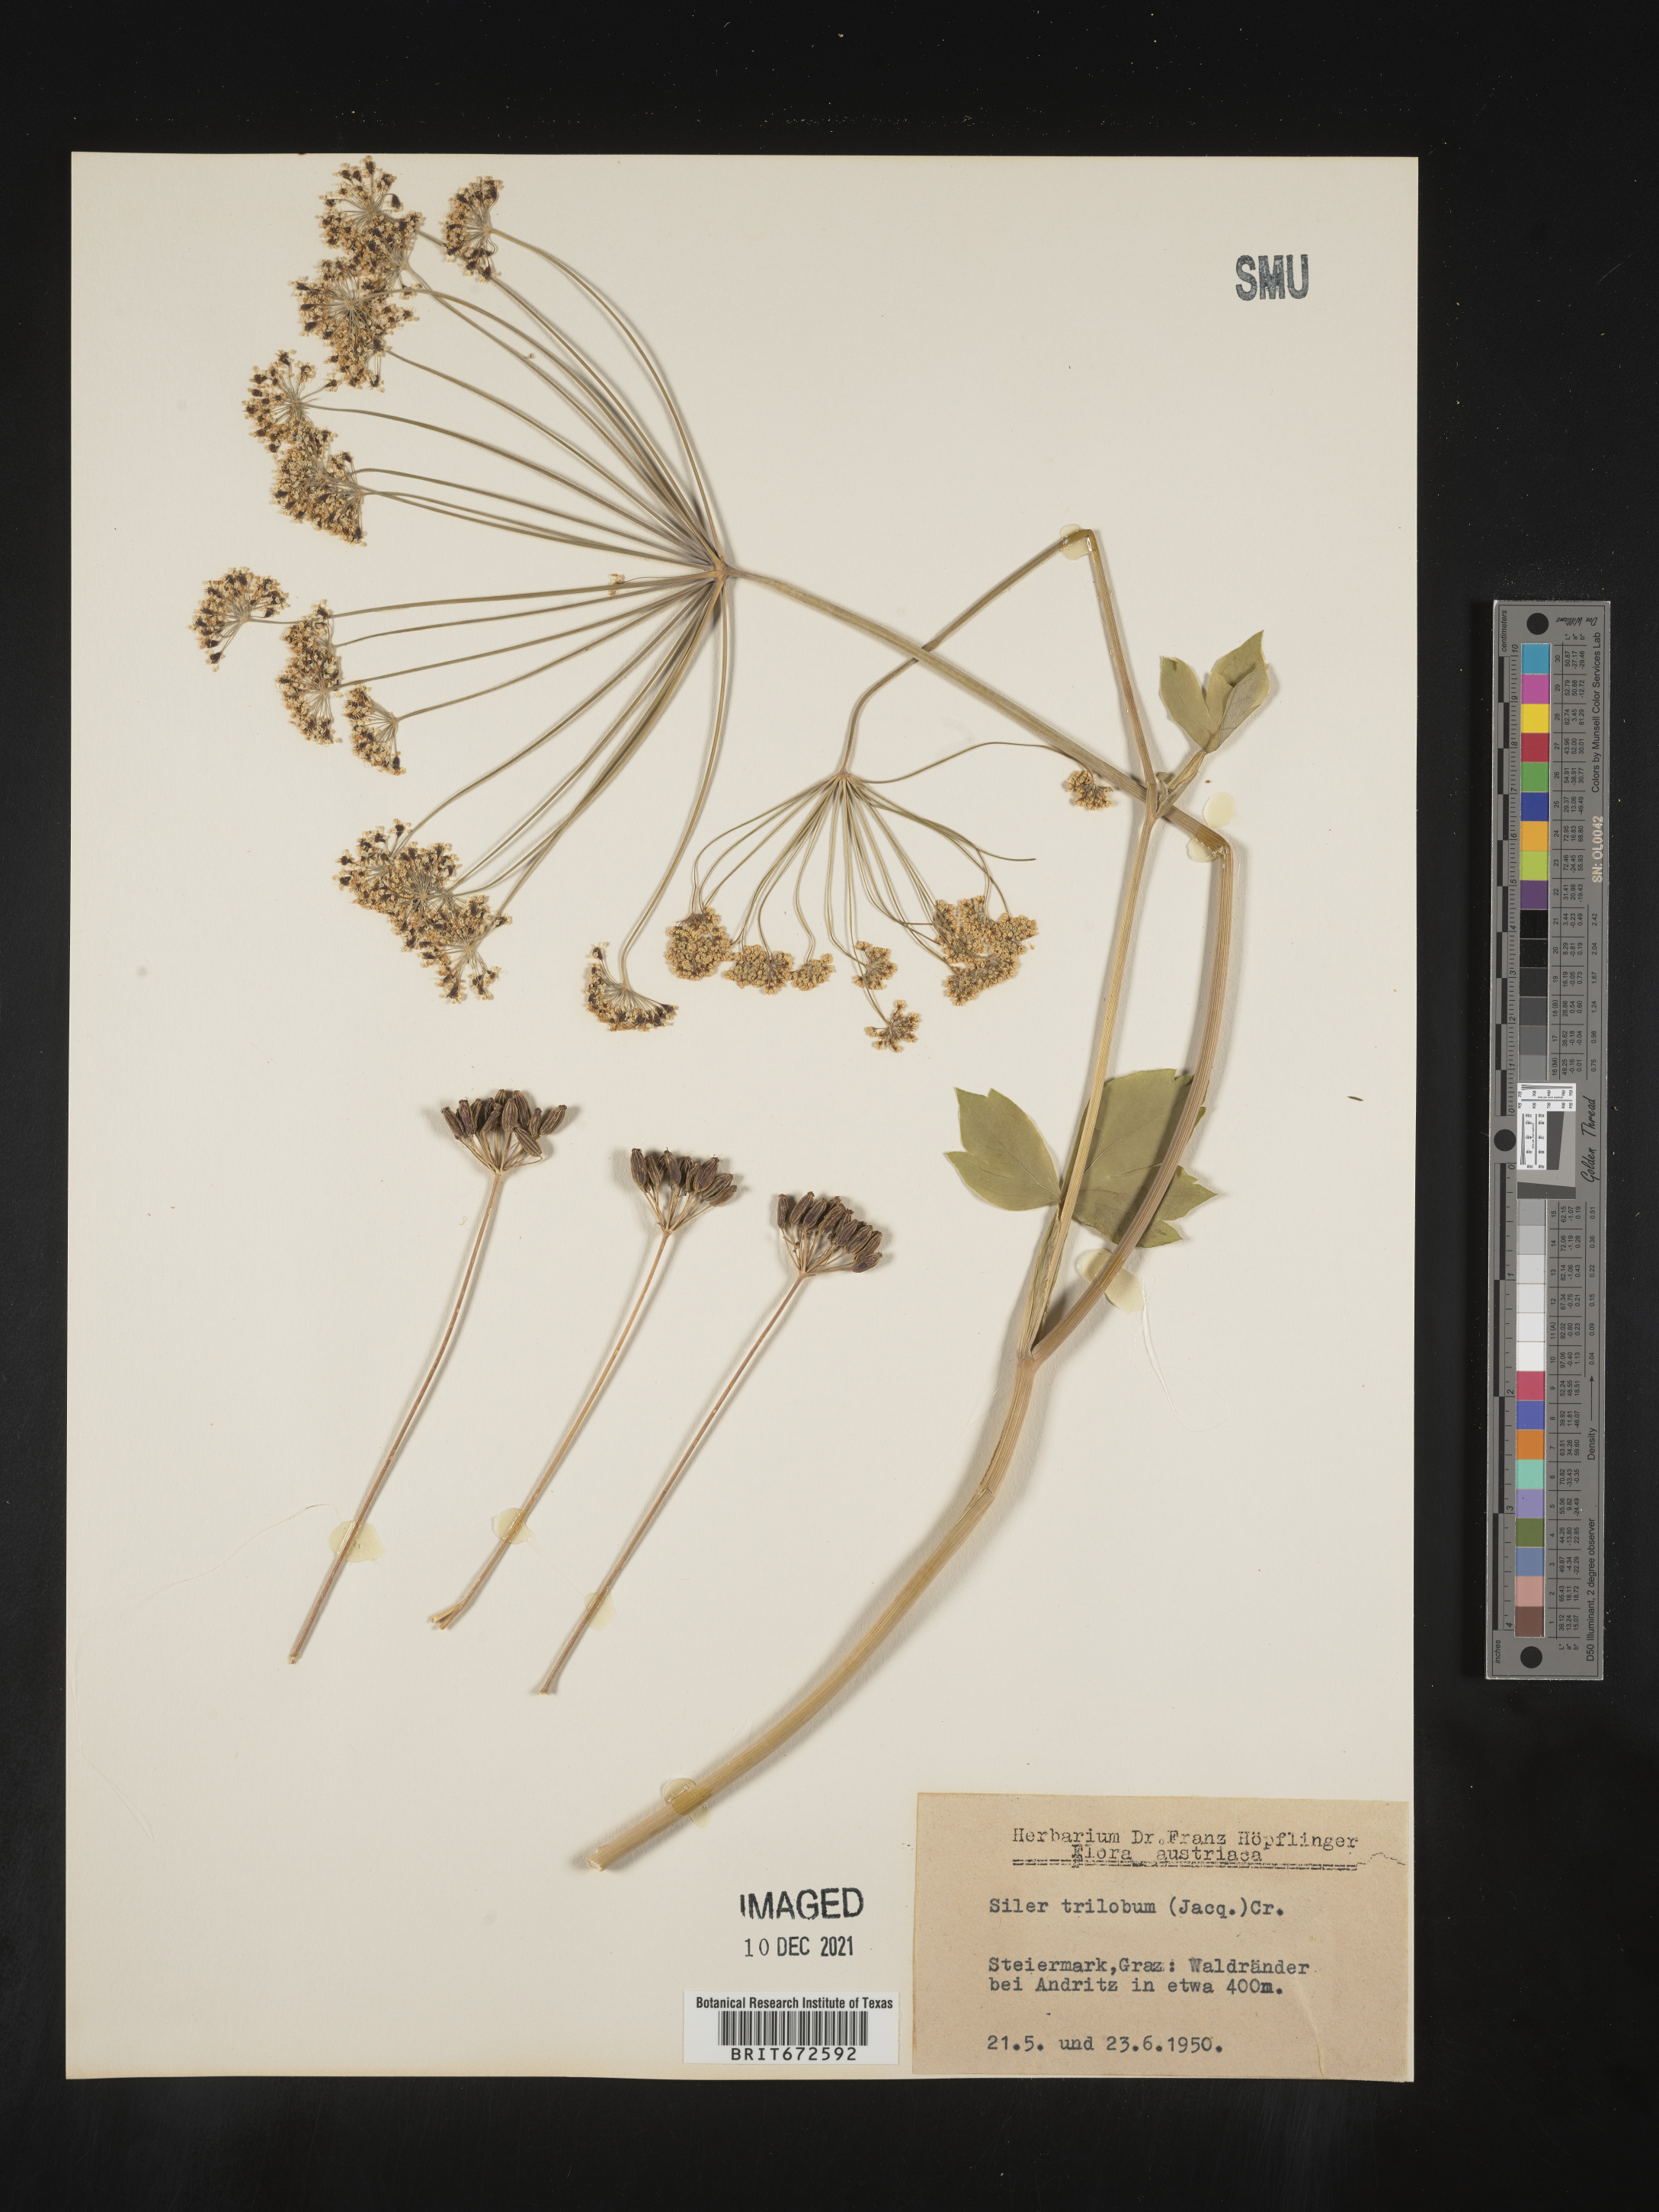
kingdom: Plantae
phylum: Tracheophyta
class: Magnoliopsida
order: Apiales
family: Apiaceae
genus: Siler
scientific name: Siler
